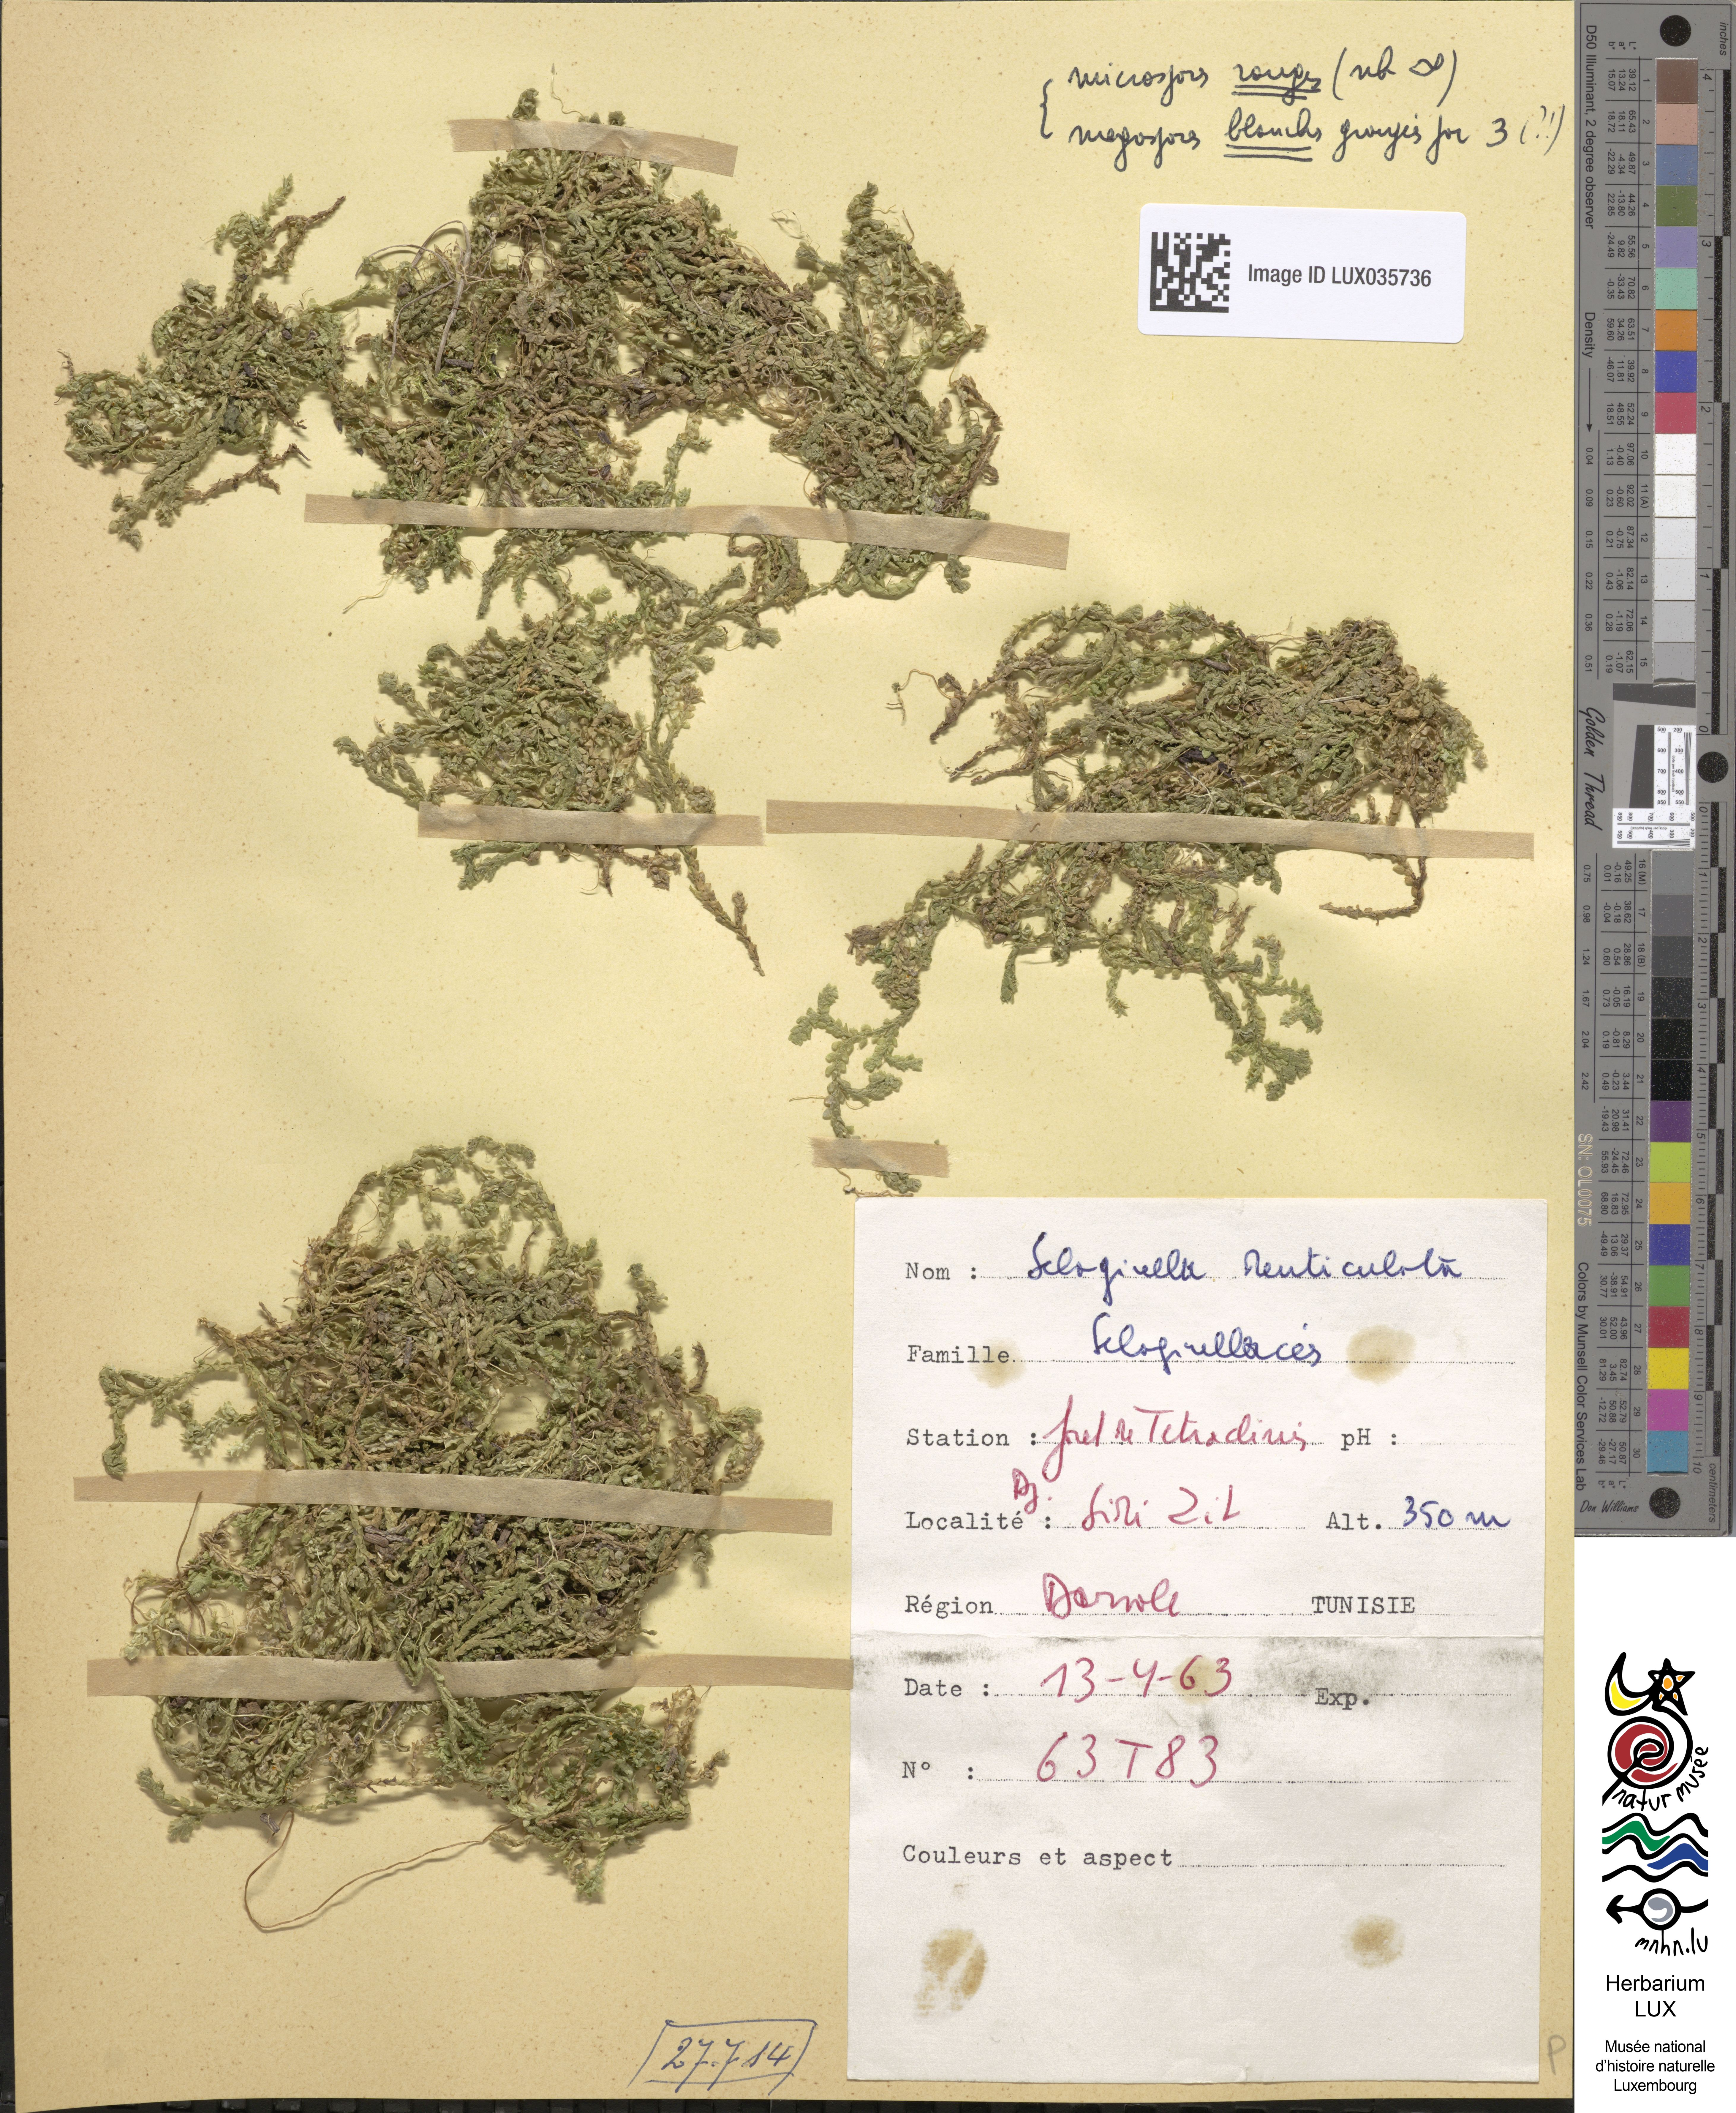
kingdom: Plantae
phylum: Tracheophyta
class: Lycopodiopsida
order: Selaginellales
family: Selaginellaceae
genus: Selaginella
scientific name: Selaginella denticulata
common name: Toothed-leaved clubmoss
